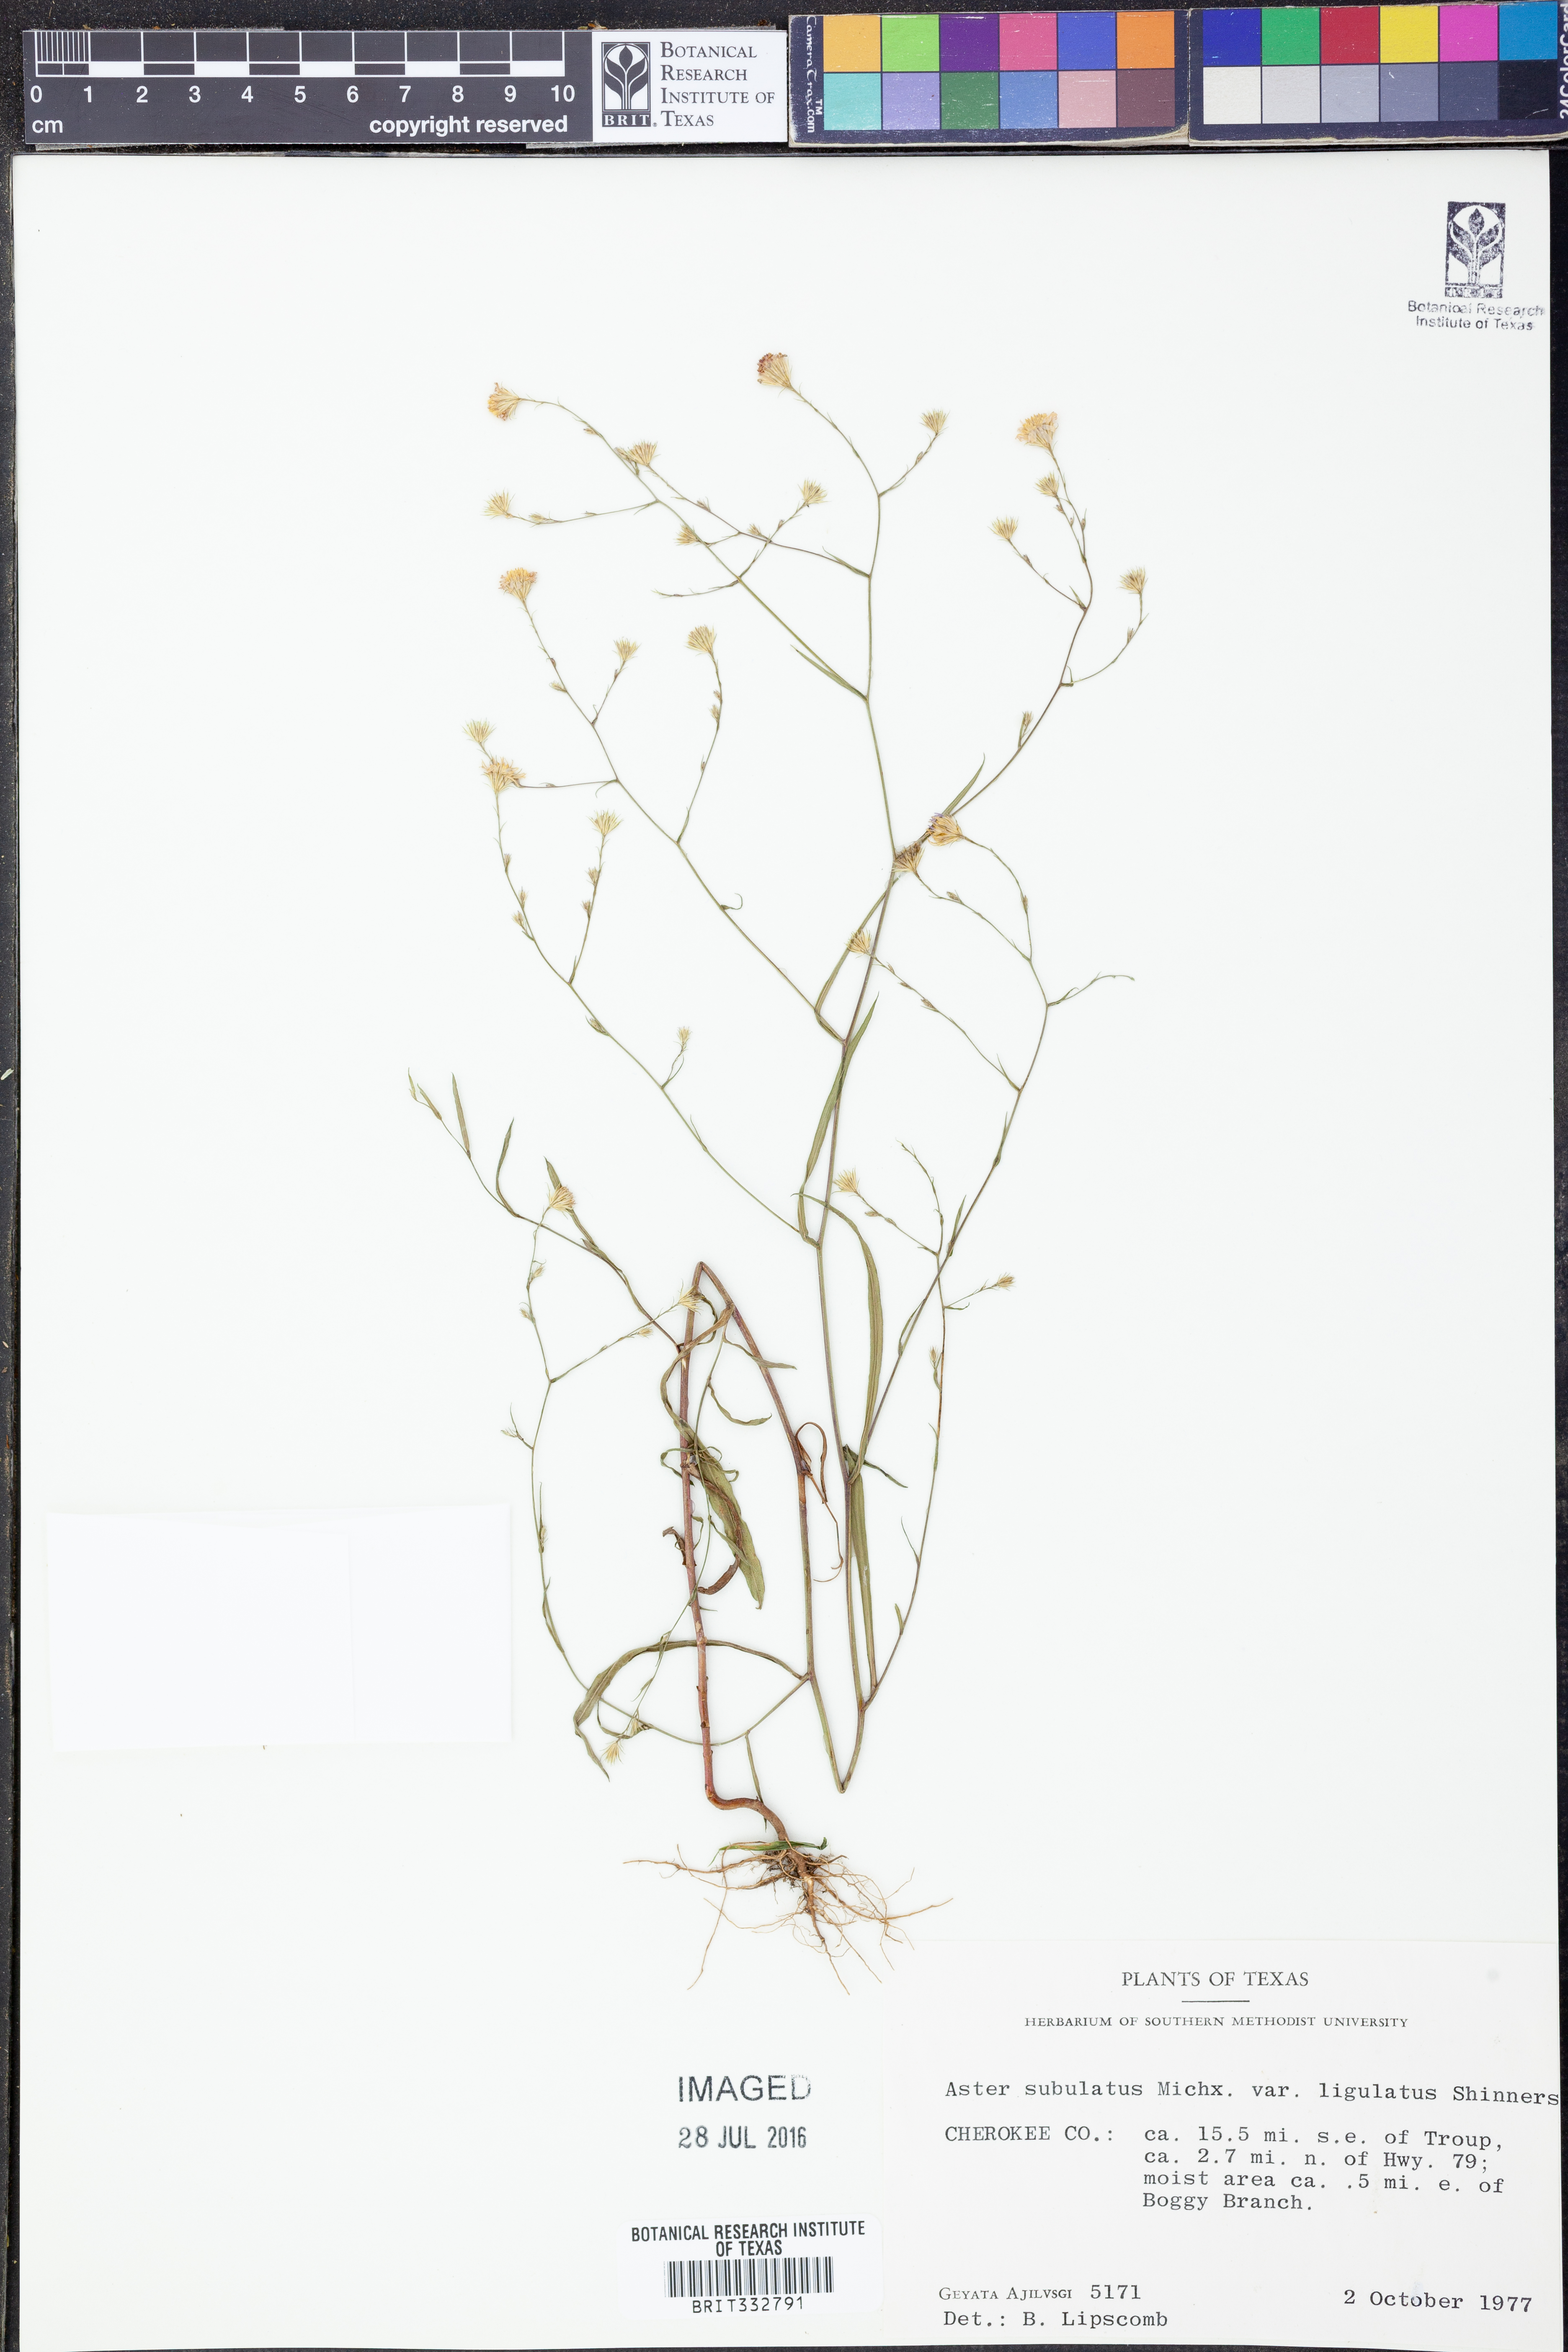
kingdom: Plantae
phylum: Tracheophyta
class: Magnoliopsida
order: Asterales
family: Asteraceae
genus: Symphyotrichum
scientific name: Symphyotrichum divaricatum
